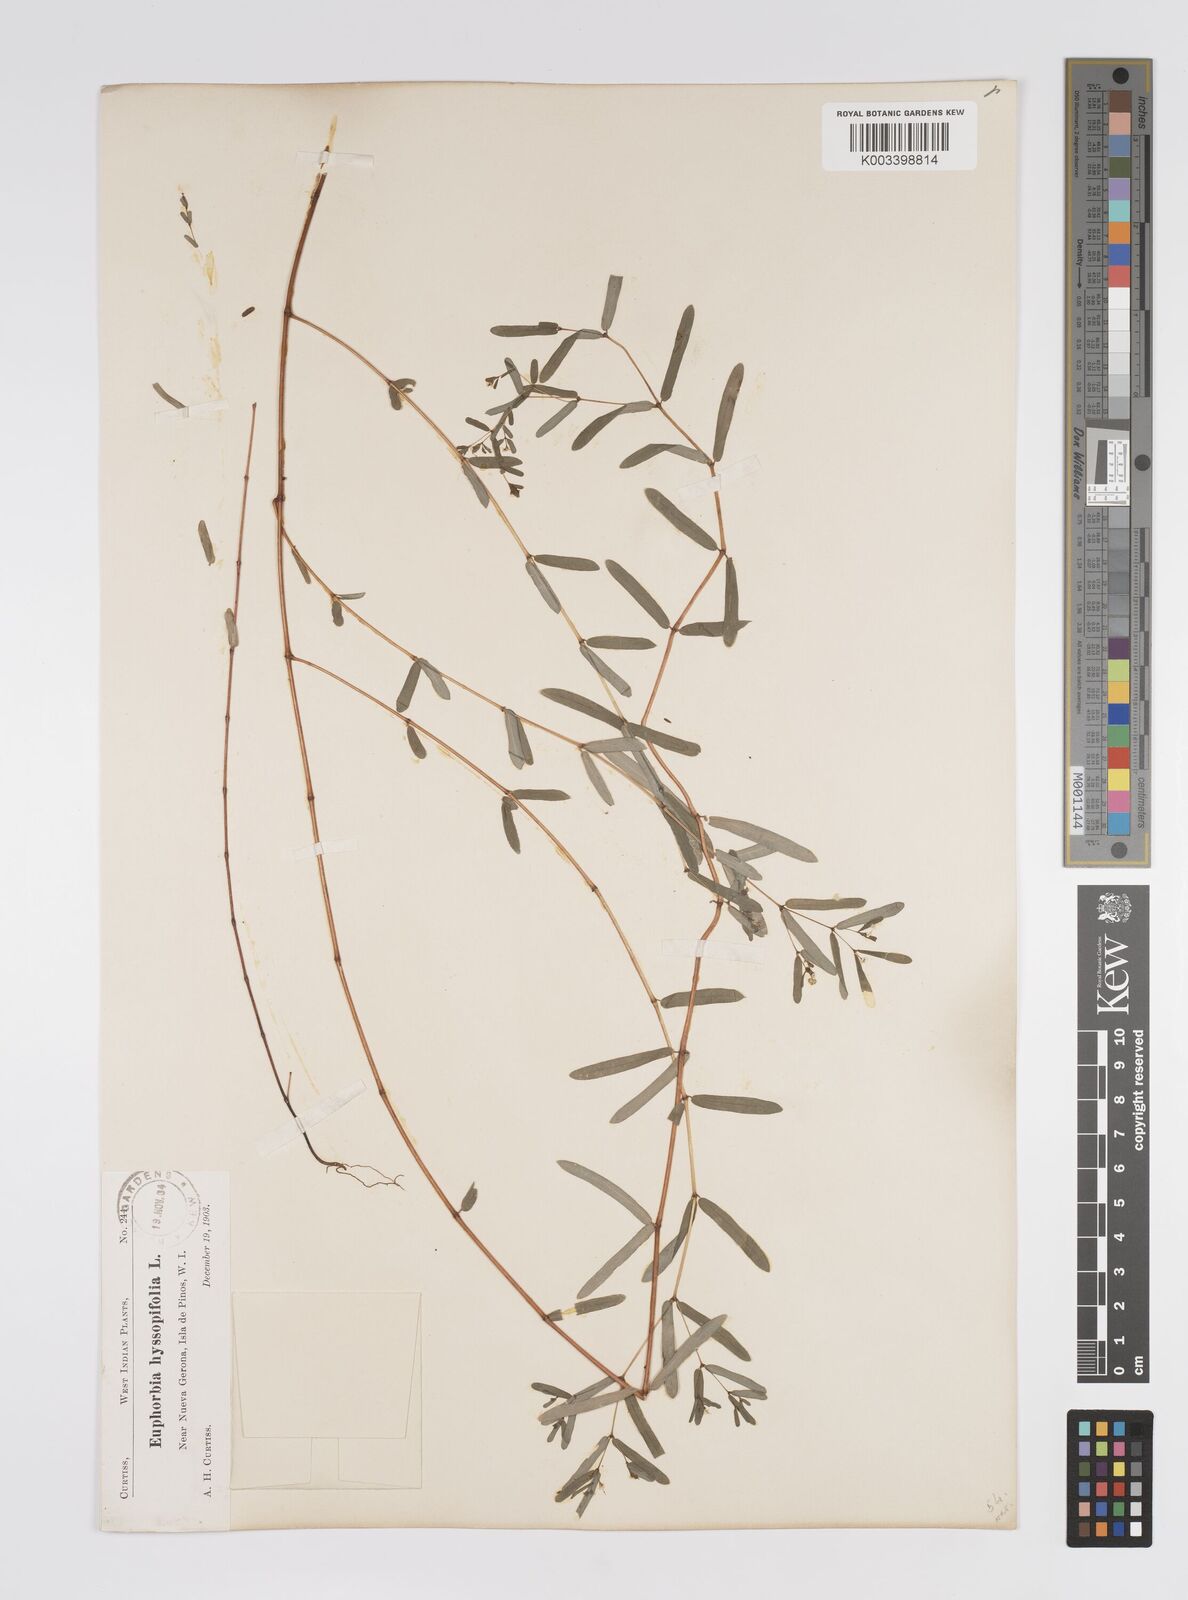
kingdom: Plantae
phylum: Tracheophyta
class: Magnoliopsida
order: Malpighiales
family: Euphorbiaceae
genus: Euphorbia
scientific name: Euphorbia hyssopifolia
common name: Hyssopleaf sandmat
